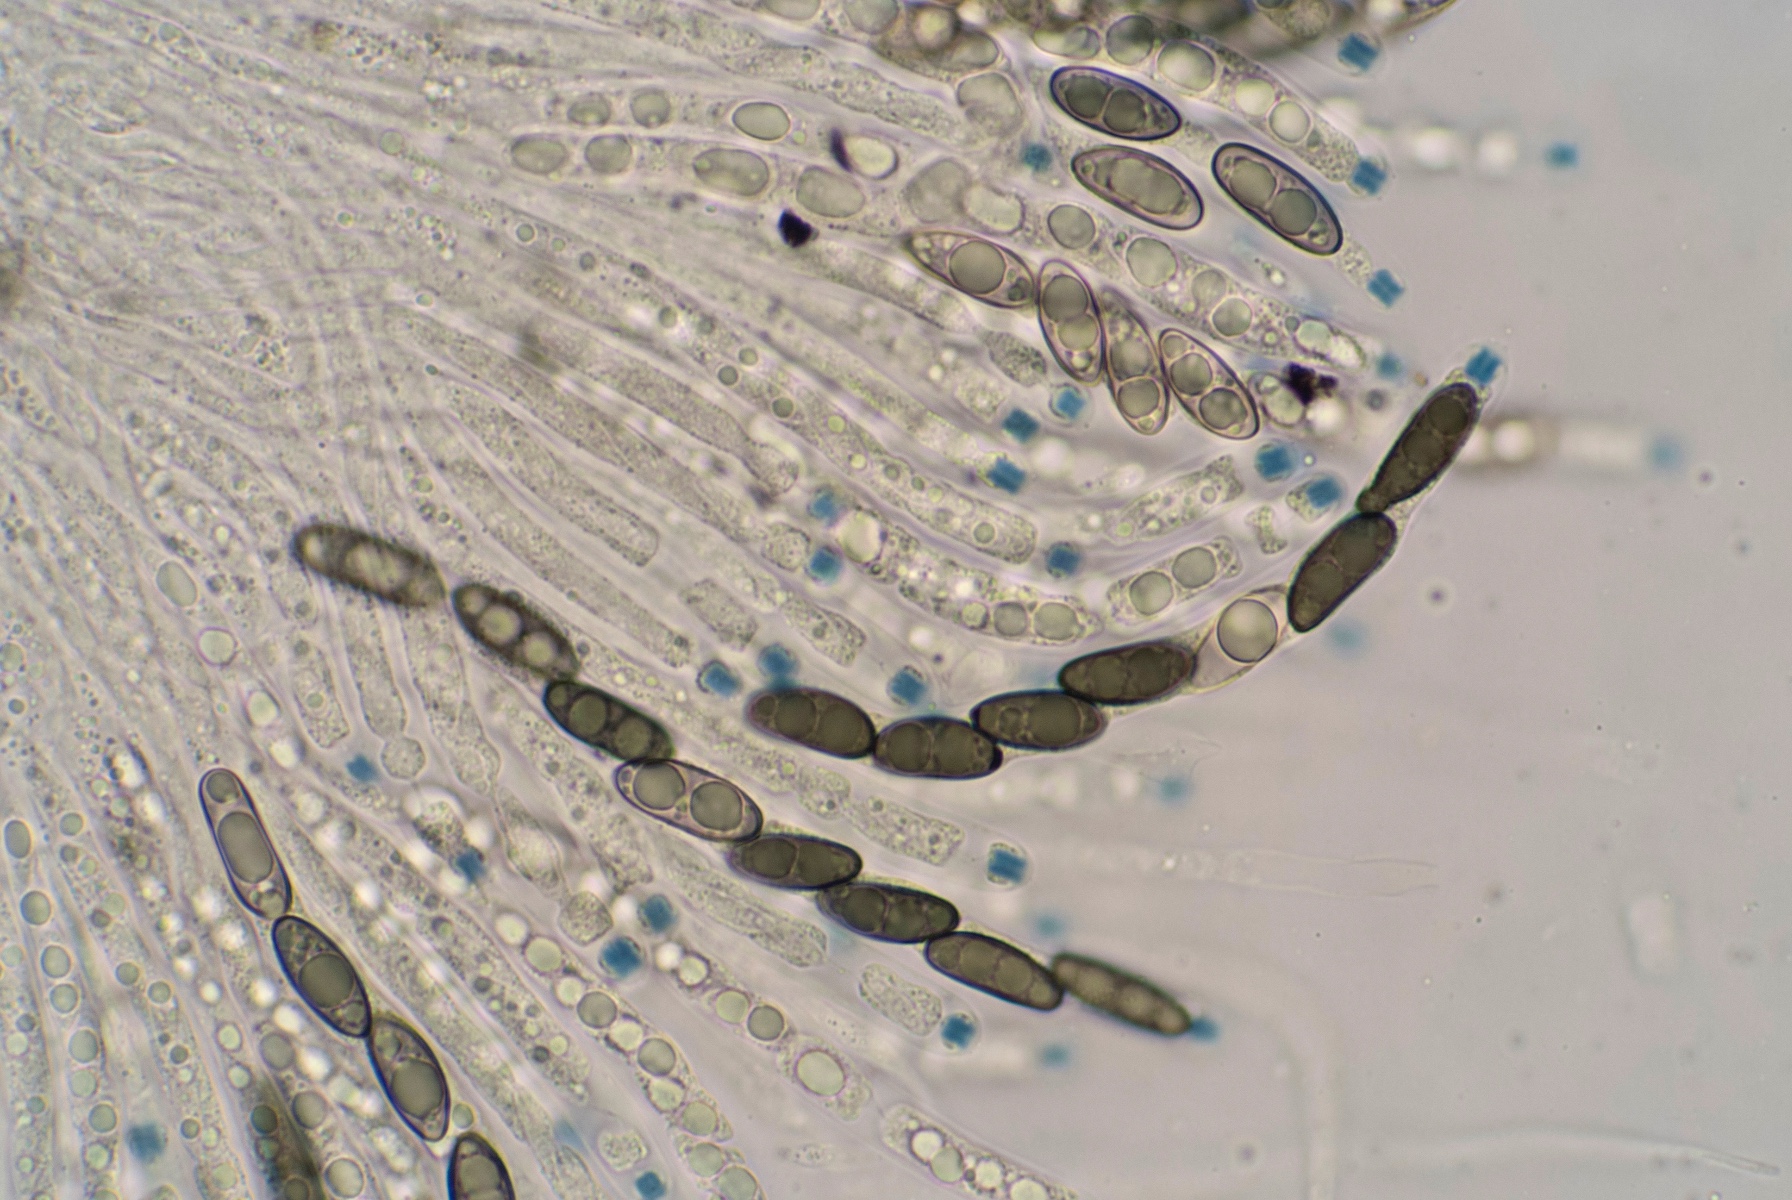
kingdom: Fungi
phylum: Ascomycota
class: Sordariomycetes
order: Xylariales
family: Xylariaceae
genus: Nemania
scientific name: Nemania serpens
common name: almindelig kuldyne
